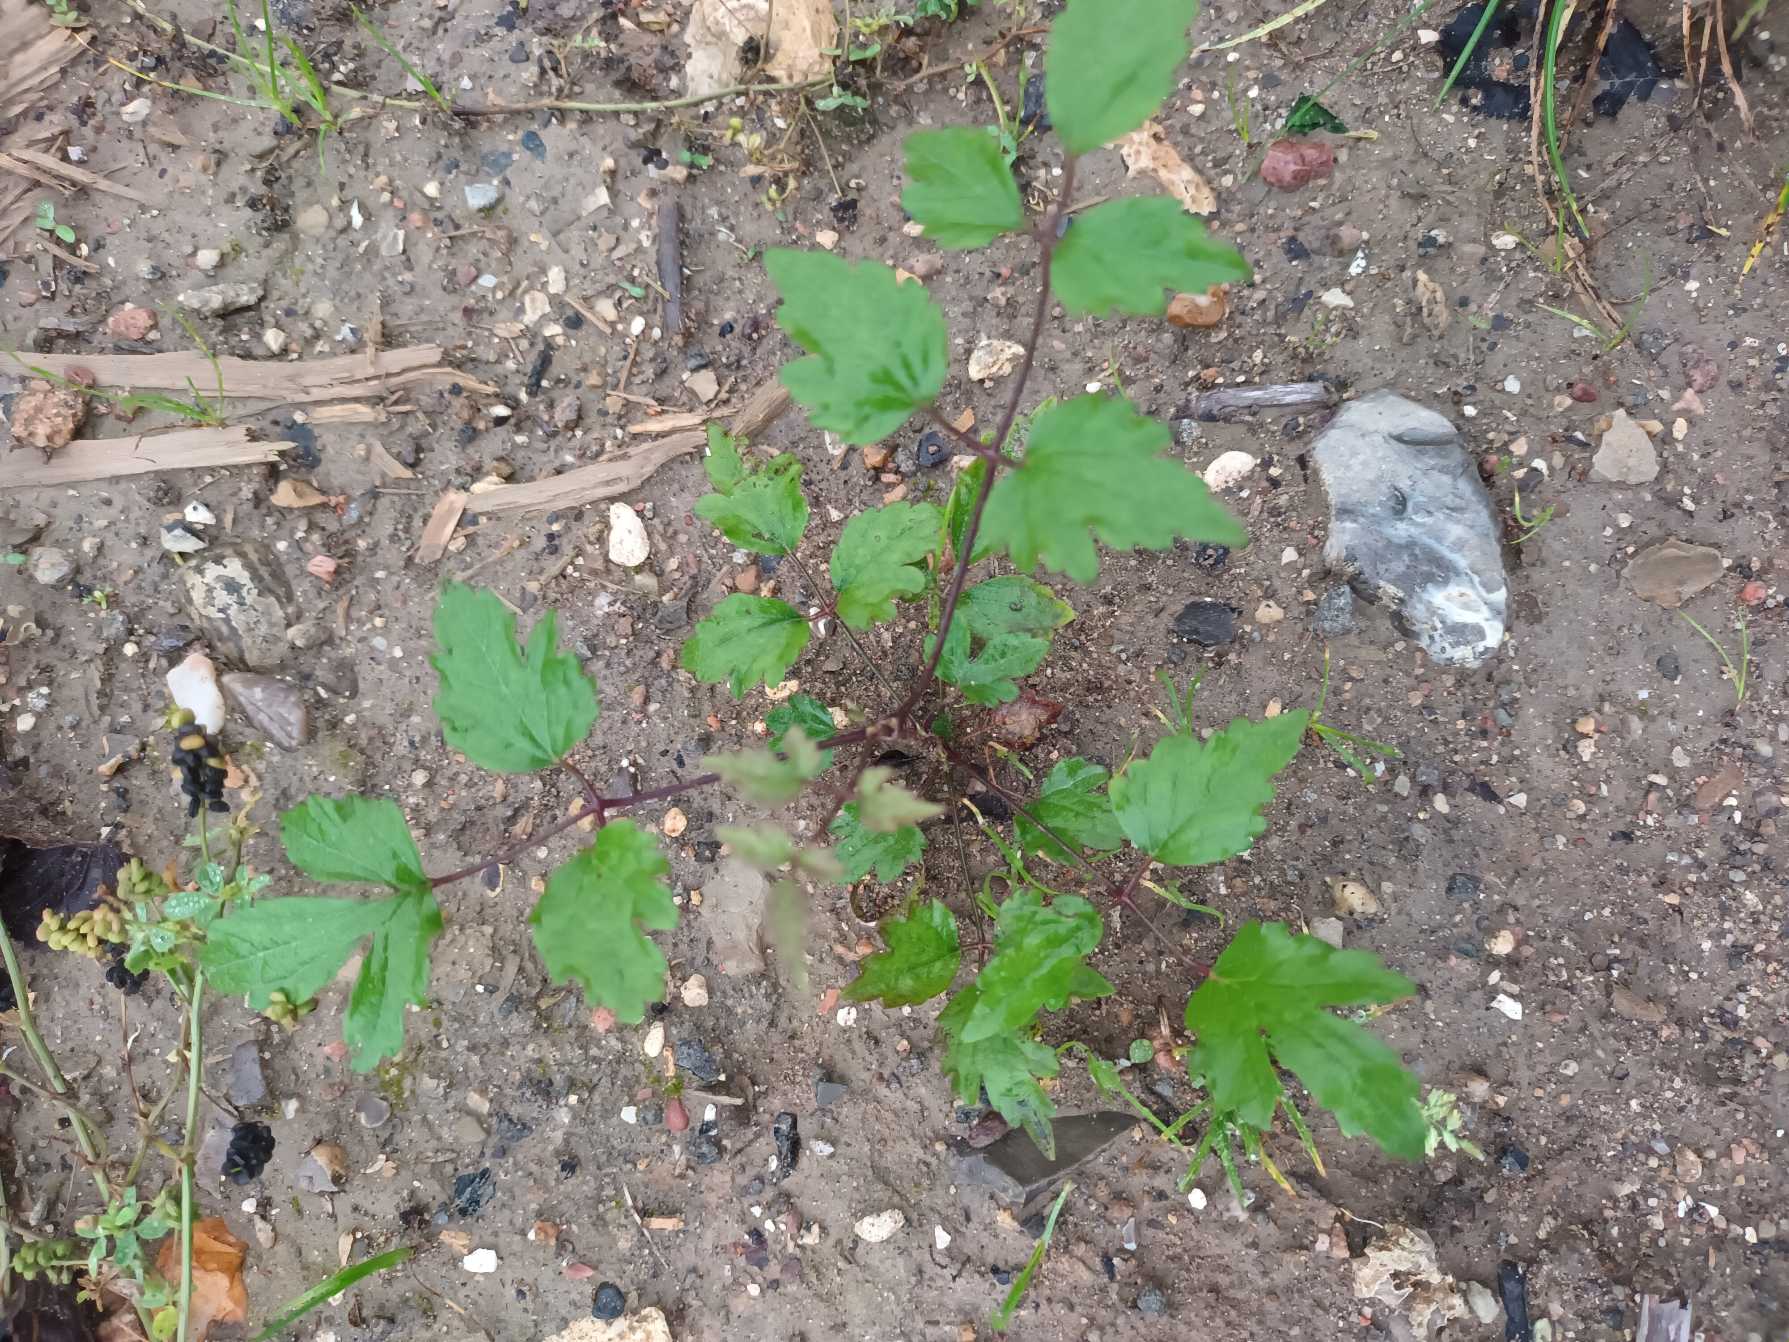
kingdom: Plantae
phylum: Tracheophyta
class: Magnoliopsida
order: Ranunculales
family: Ranunculaceae
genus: Clematis
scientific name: Clematis vitalba
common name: Skovranke
